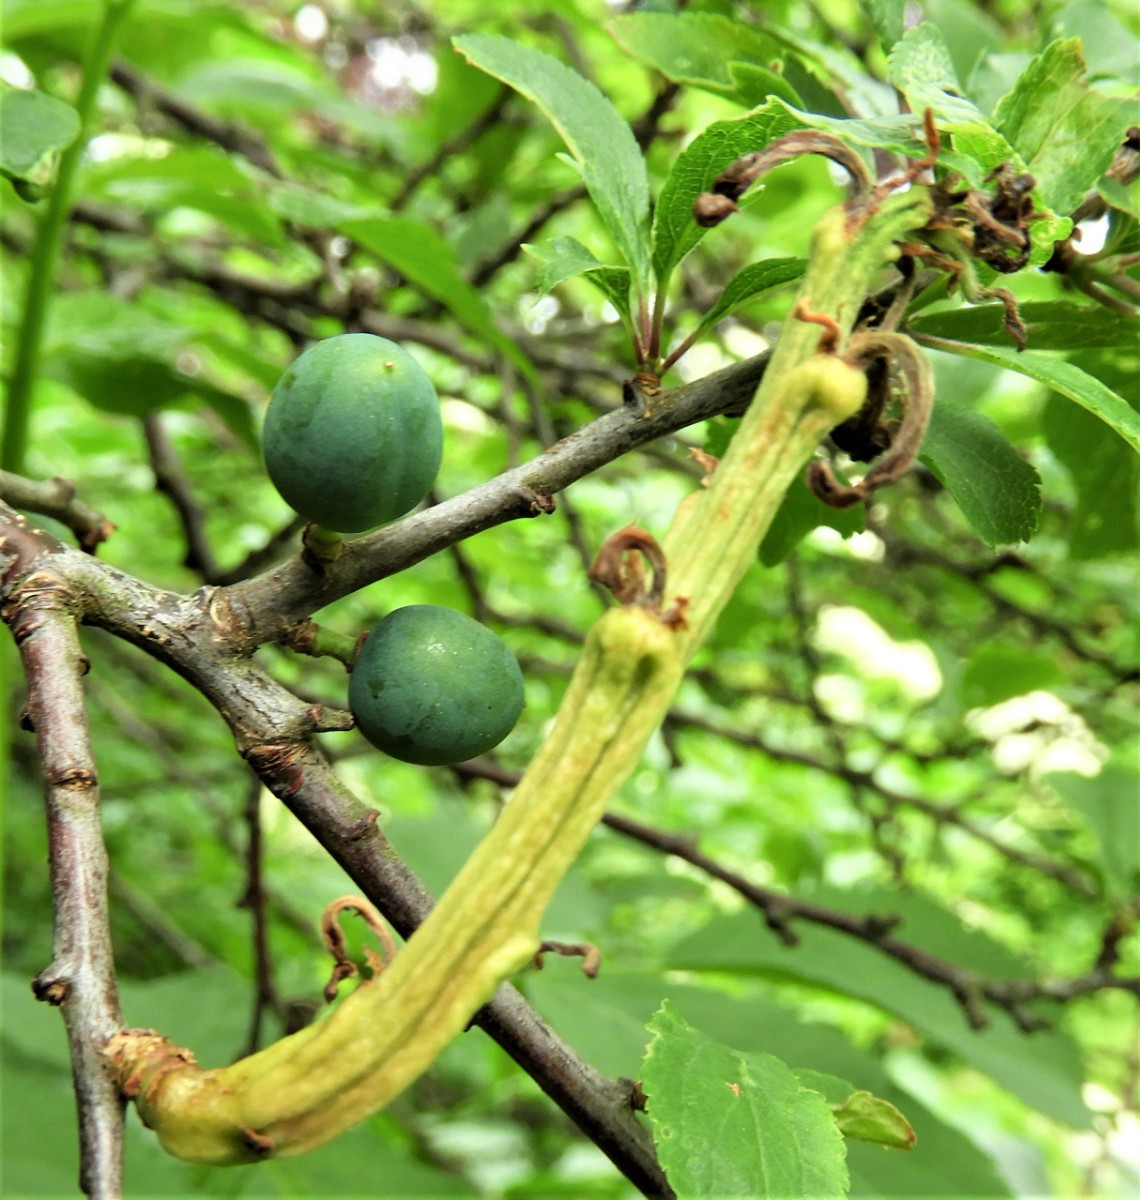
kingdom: Fungi
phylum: Ascomycota
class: Taphrinomycetes
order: Taphrinales
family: Taphrinaceae
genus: Taphrina
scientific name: Taphrina pruni
